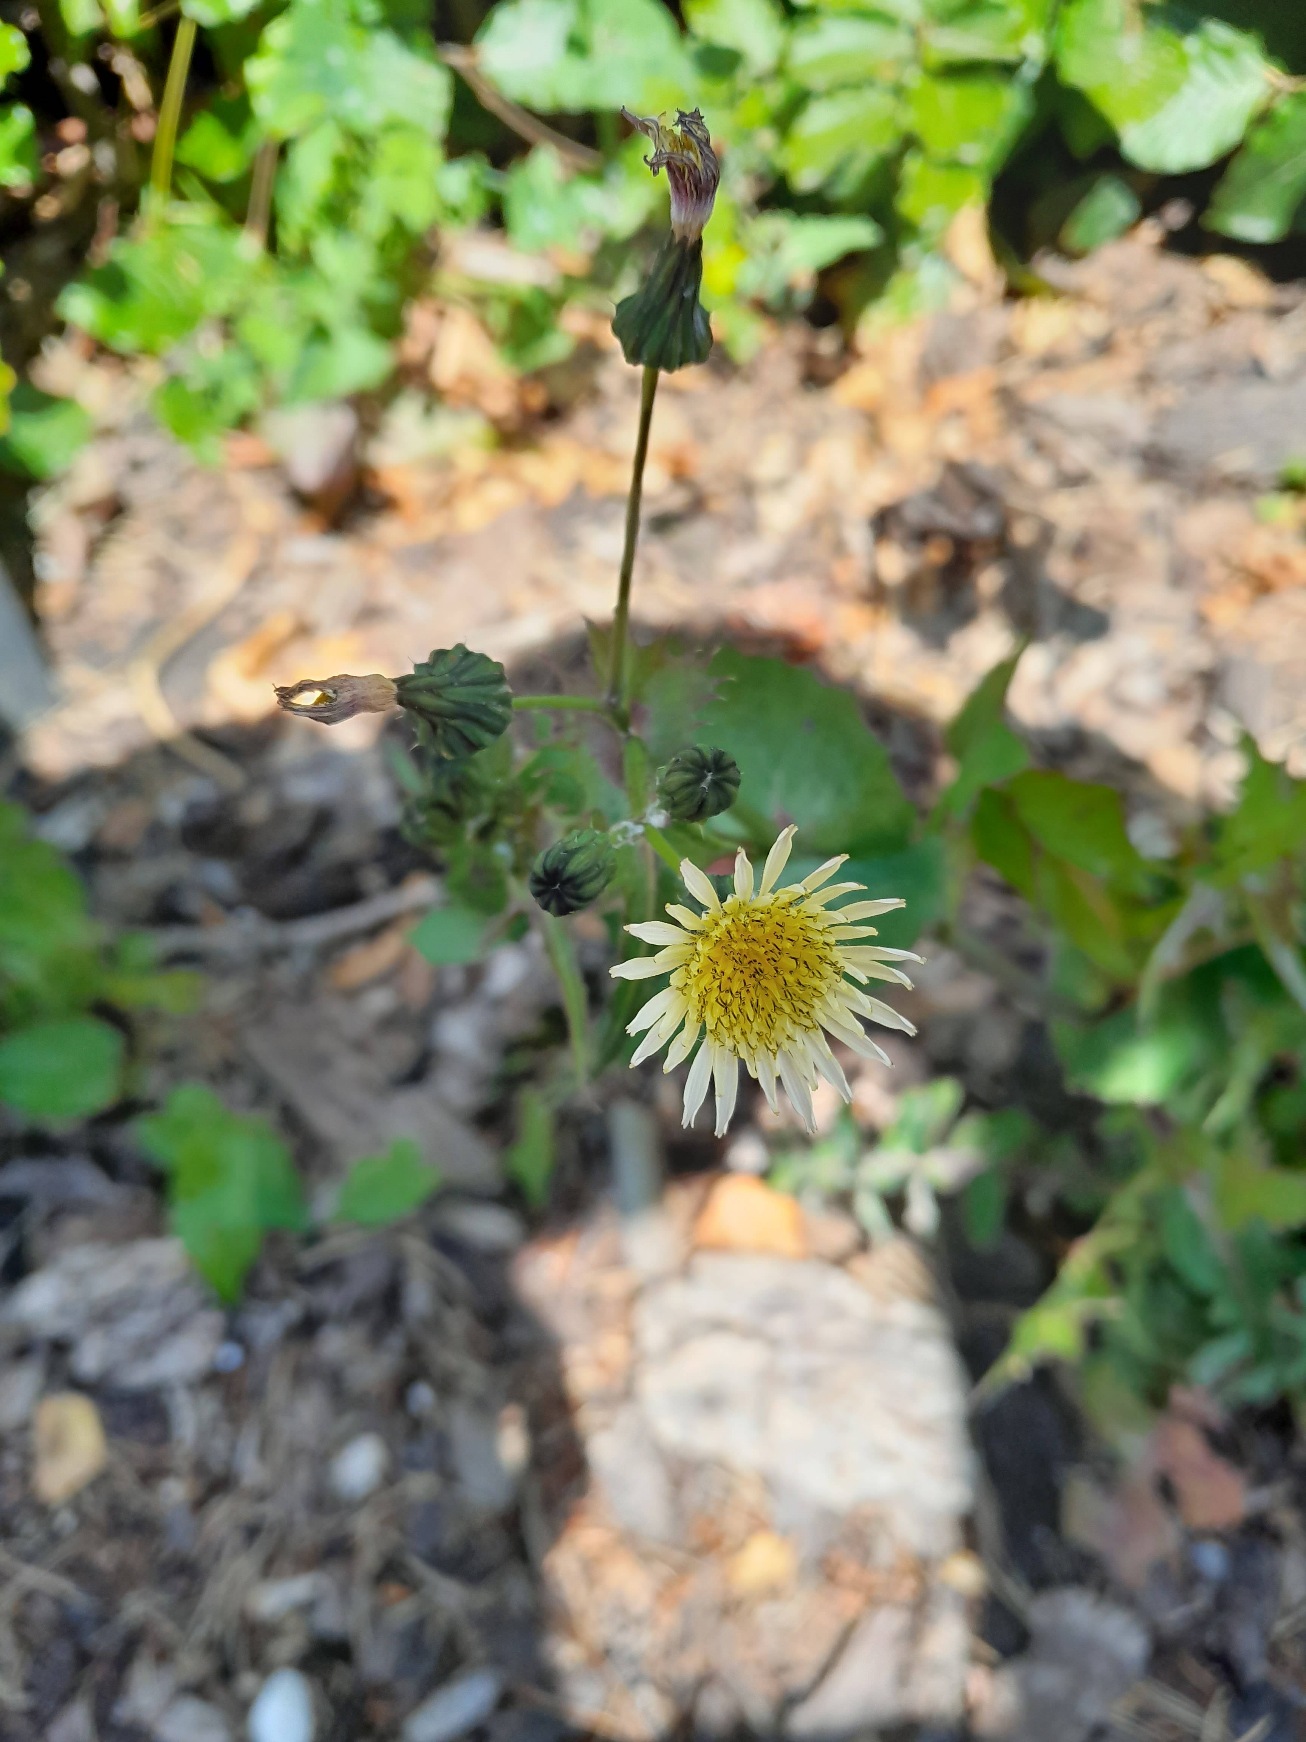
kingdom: Plantae
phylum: Tracheophyta
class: Magnoliopsida
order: Asterales
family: Asteraceae
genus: Sonchus
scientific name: Sonchus oleraceus
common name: Almindelig svinemælk
